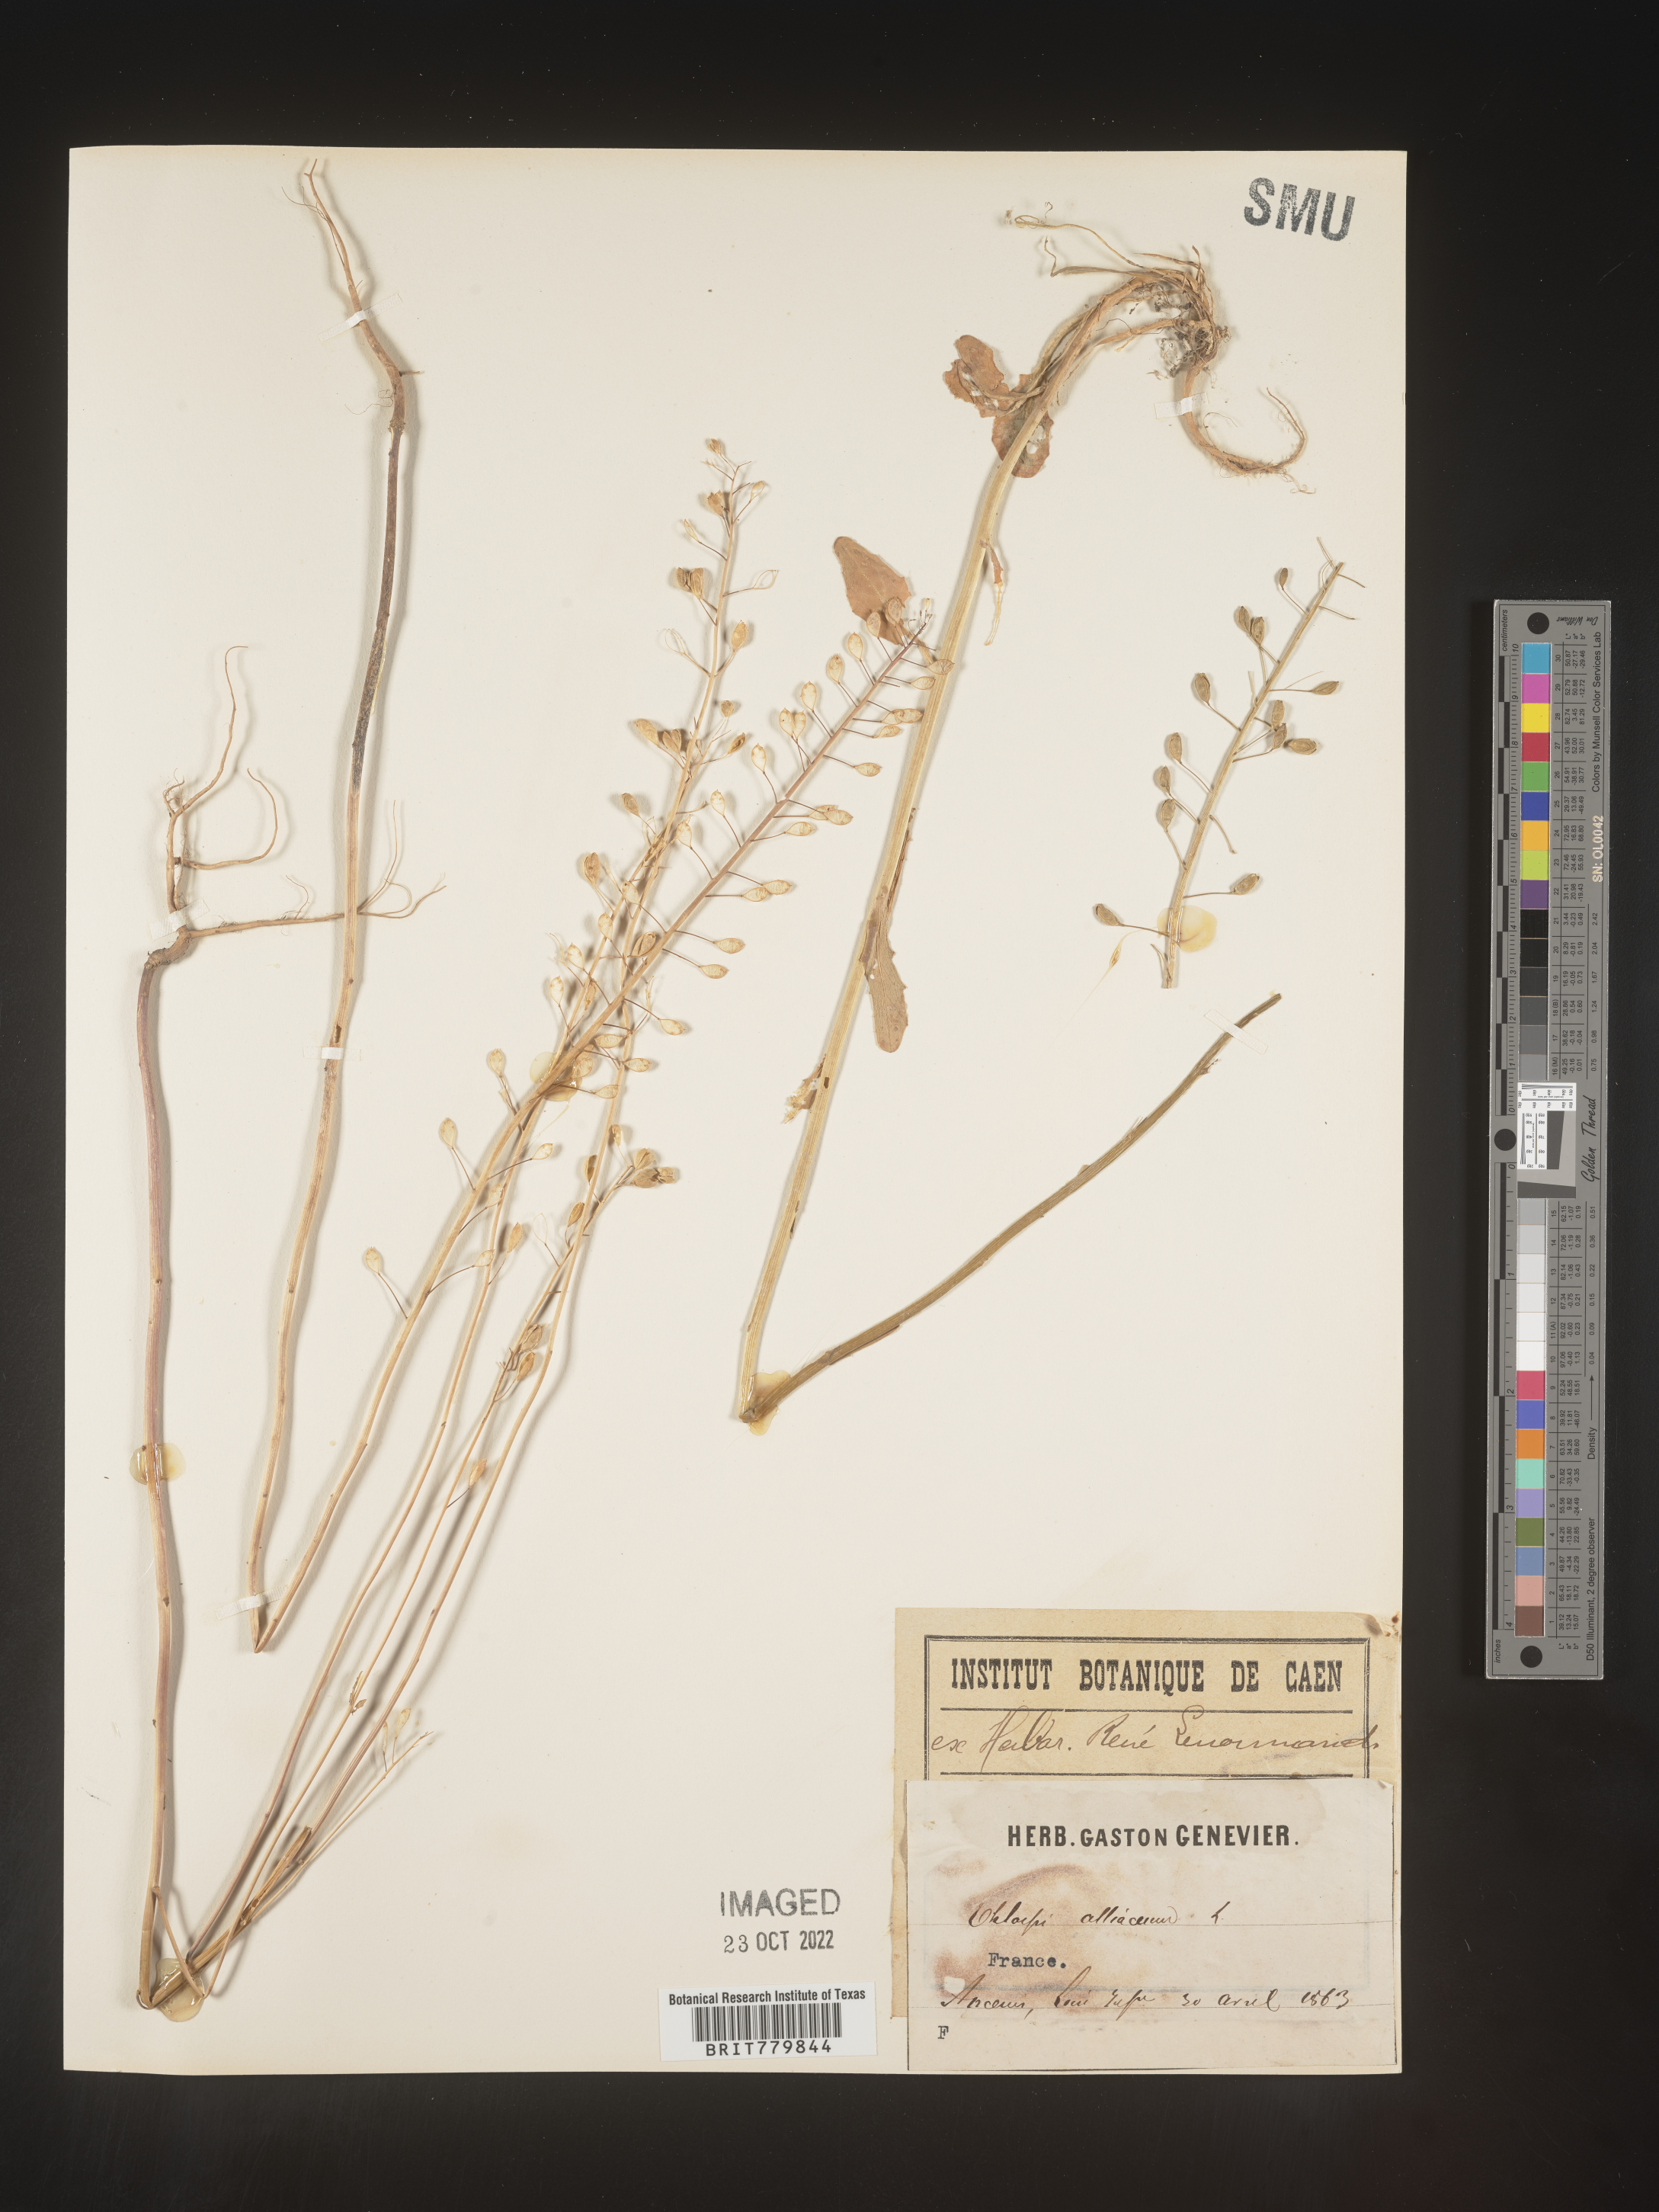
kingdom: Plantae
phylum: Tracheophyta
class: Magnoliopsida
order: Brassicales
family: Brassicaceae
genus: Thlaspi
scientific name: Thlaspi
